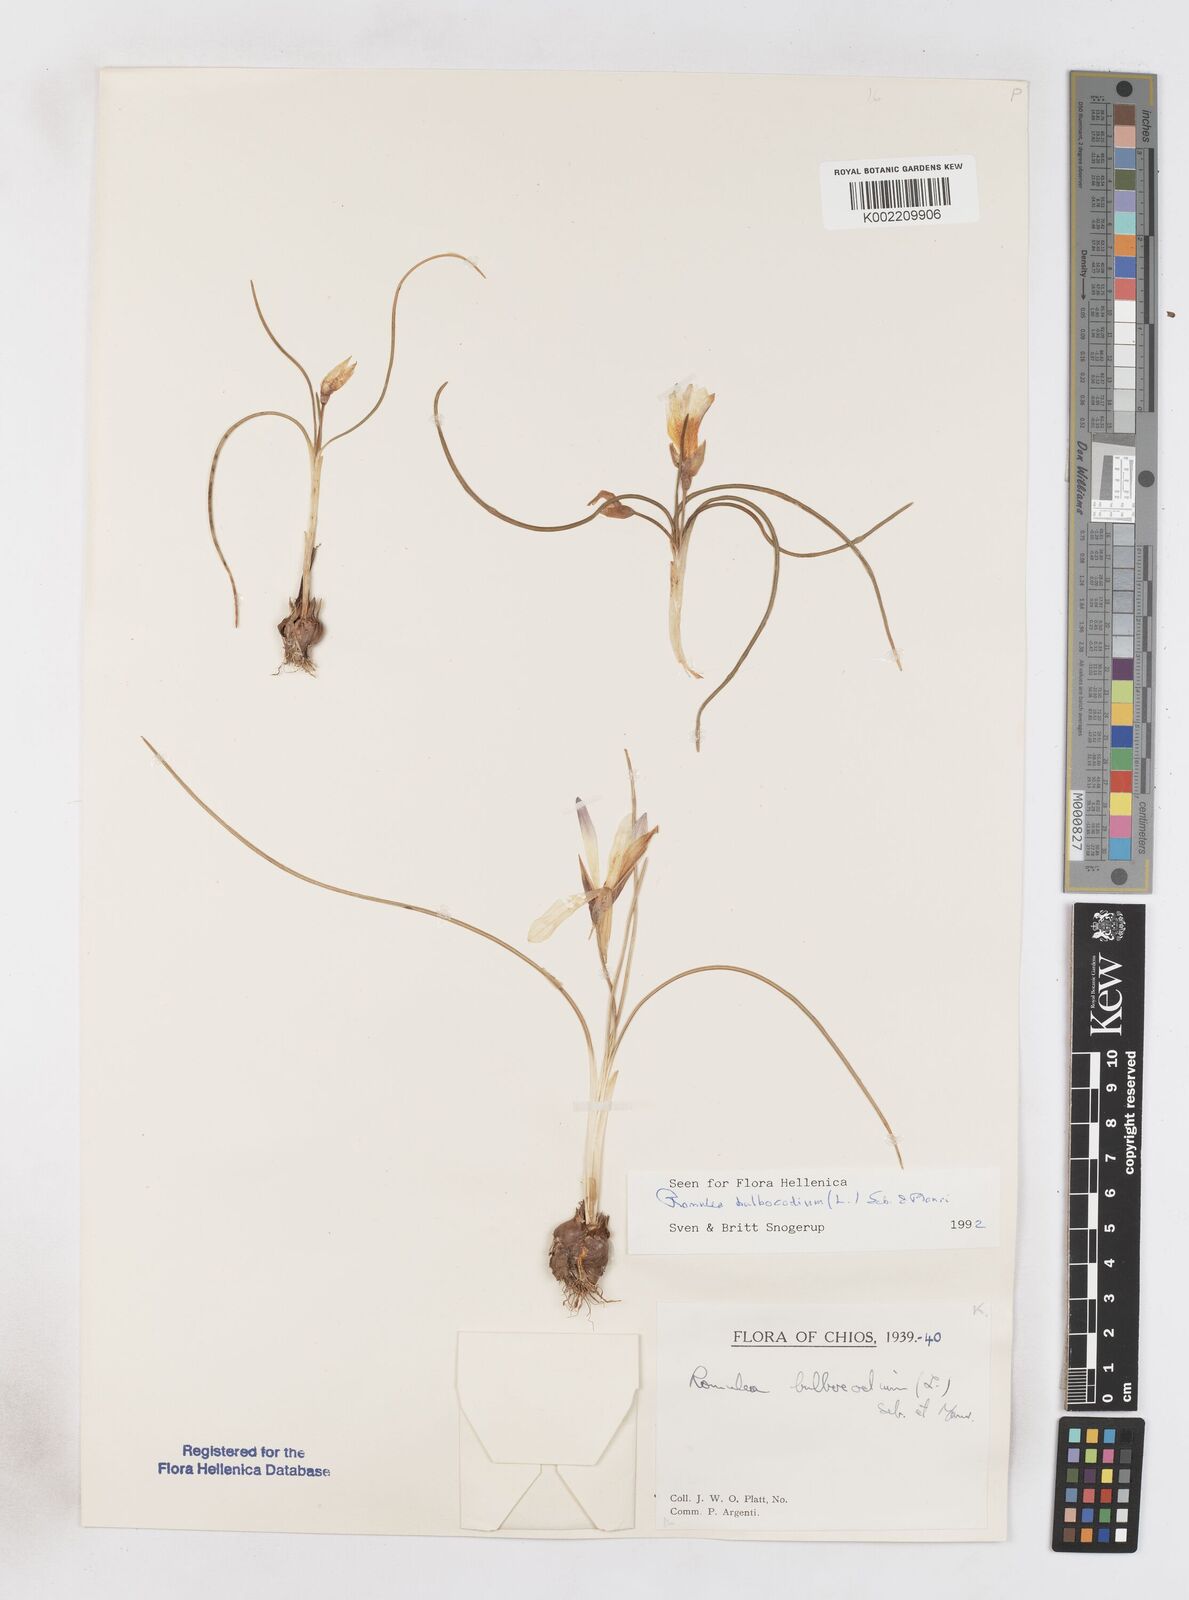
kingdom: Plantae
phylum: Tracheophyta
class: Liliopsida
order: Asparagales
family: Iridaceae
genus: Romulea
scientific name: Romulea bulbocodium
